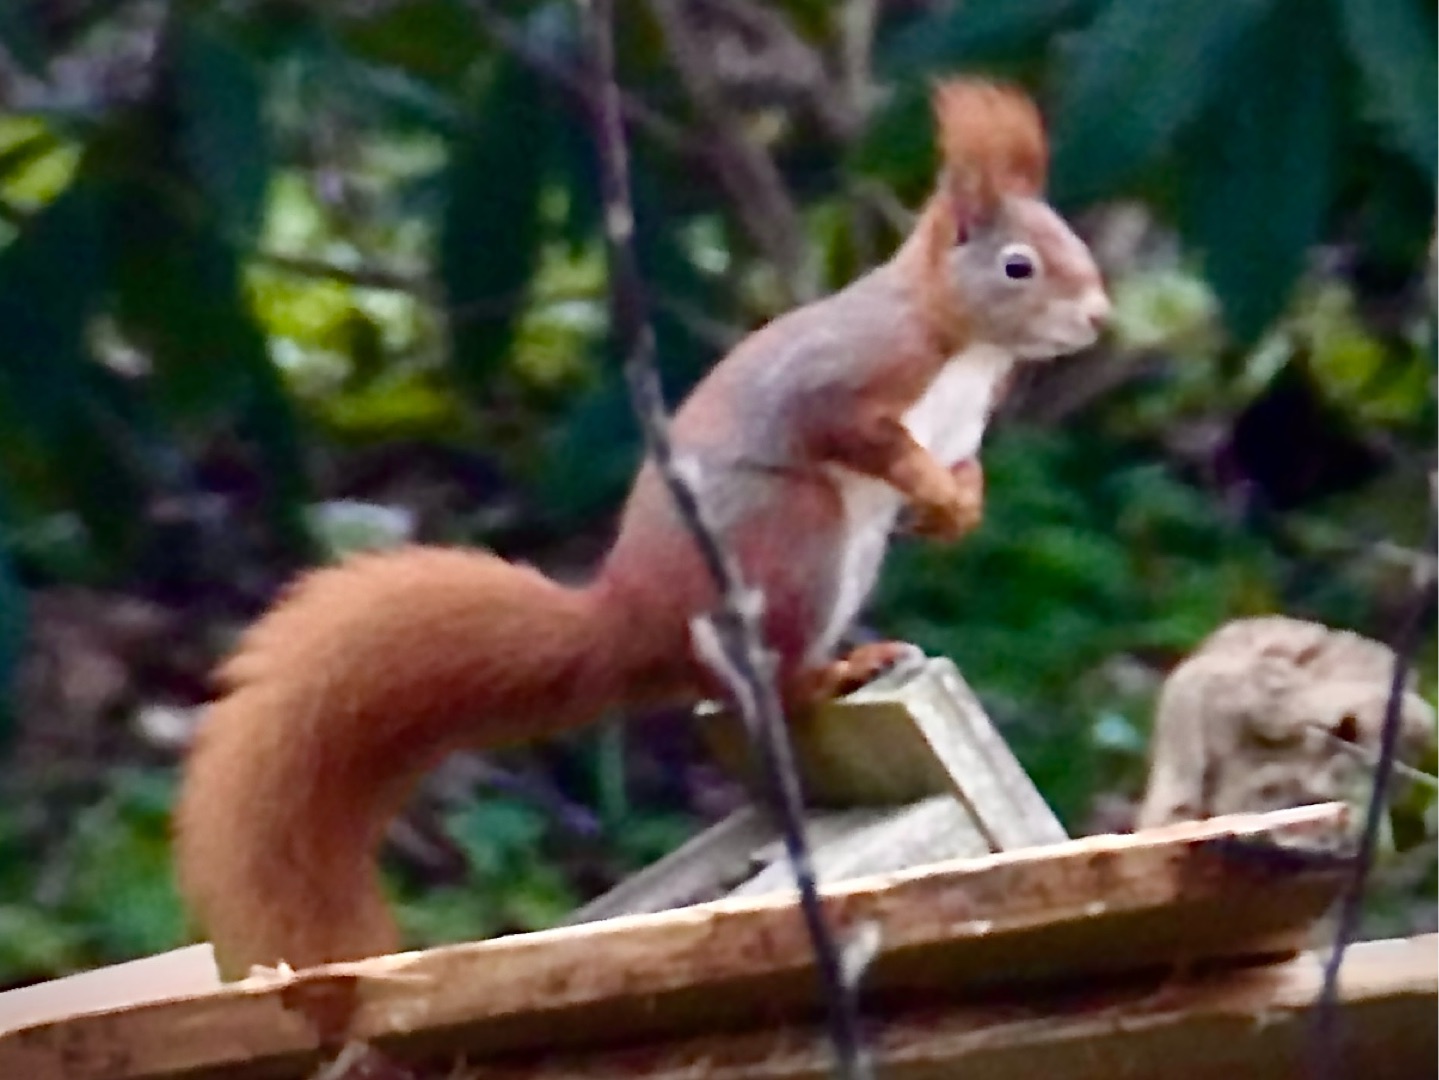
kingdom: Animalia
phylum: Chordata
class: Mammalia
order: Rodentia
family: Sciuridae
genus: Sciurus
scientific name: Sciurus vulgaris
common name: Egern
